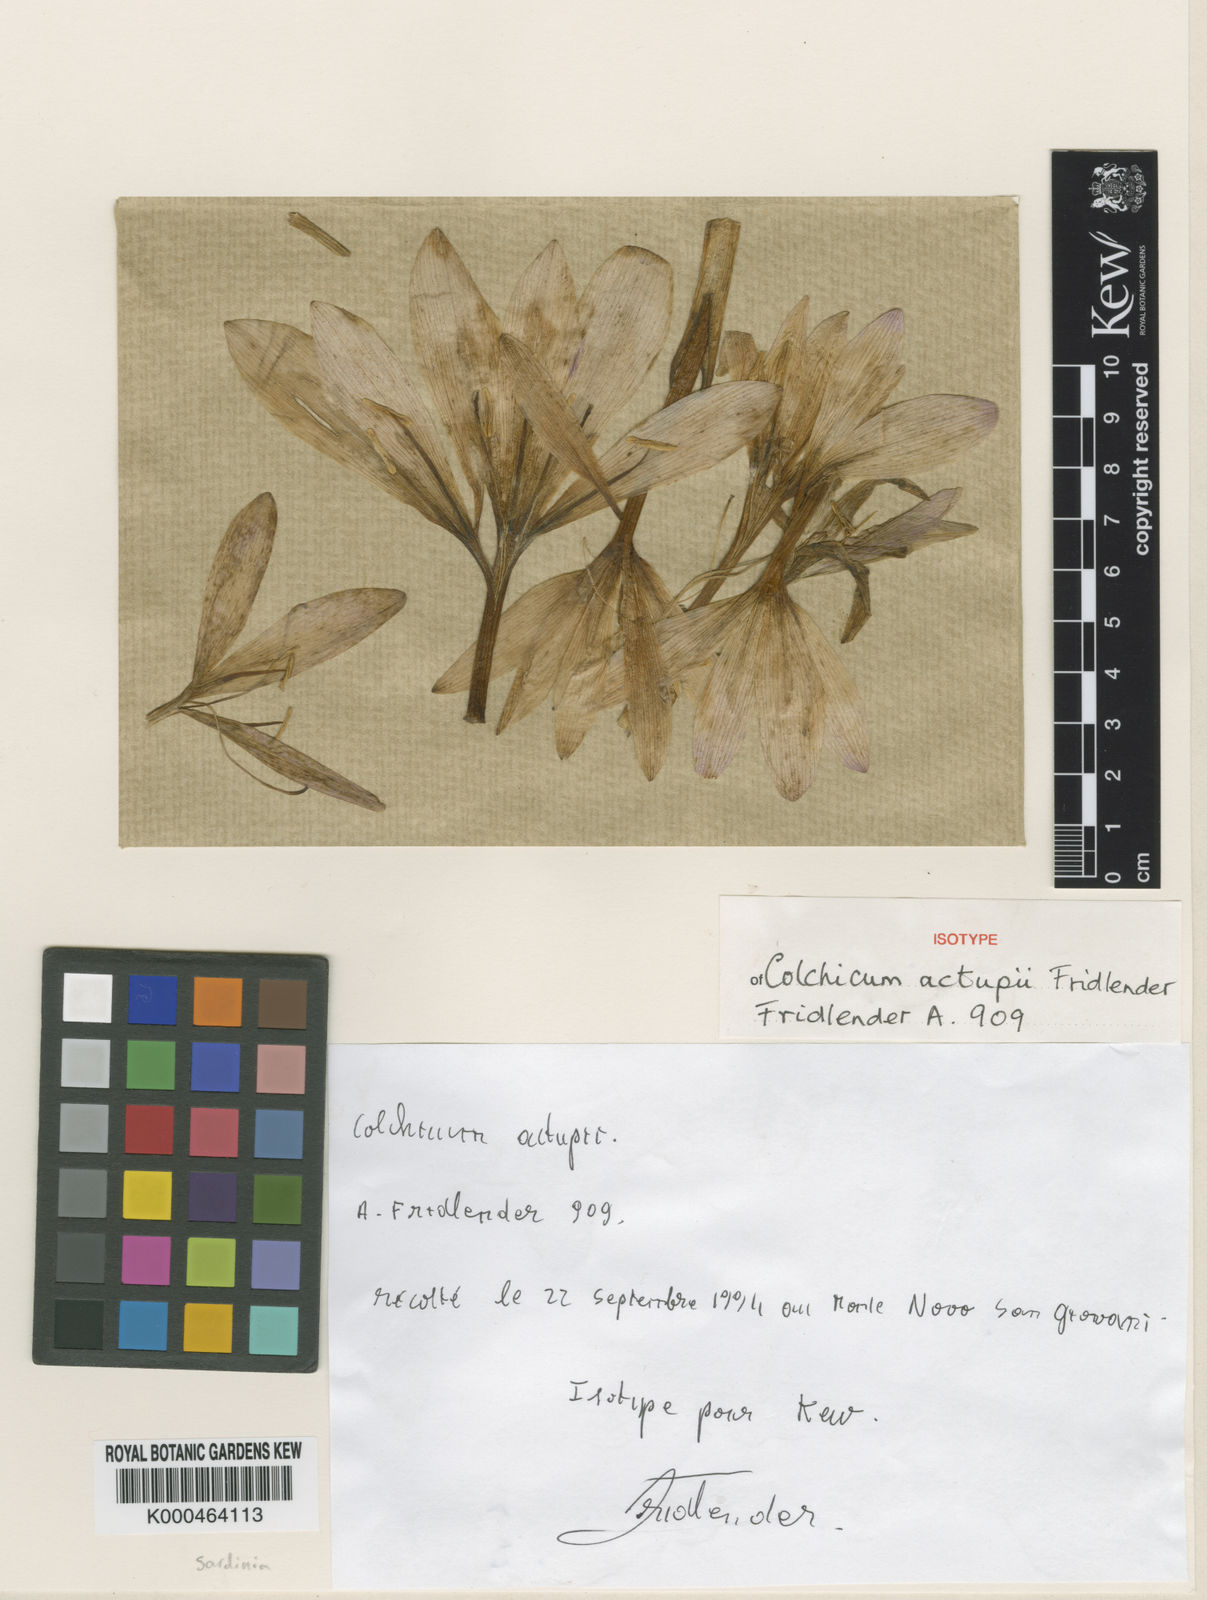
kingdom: Plantae
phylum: Tracheophyta
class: Liliopsida
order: Liliales
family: Colchicaceae
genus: Colchicum
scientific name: Colchicum actupii
